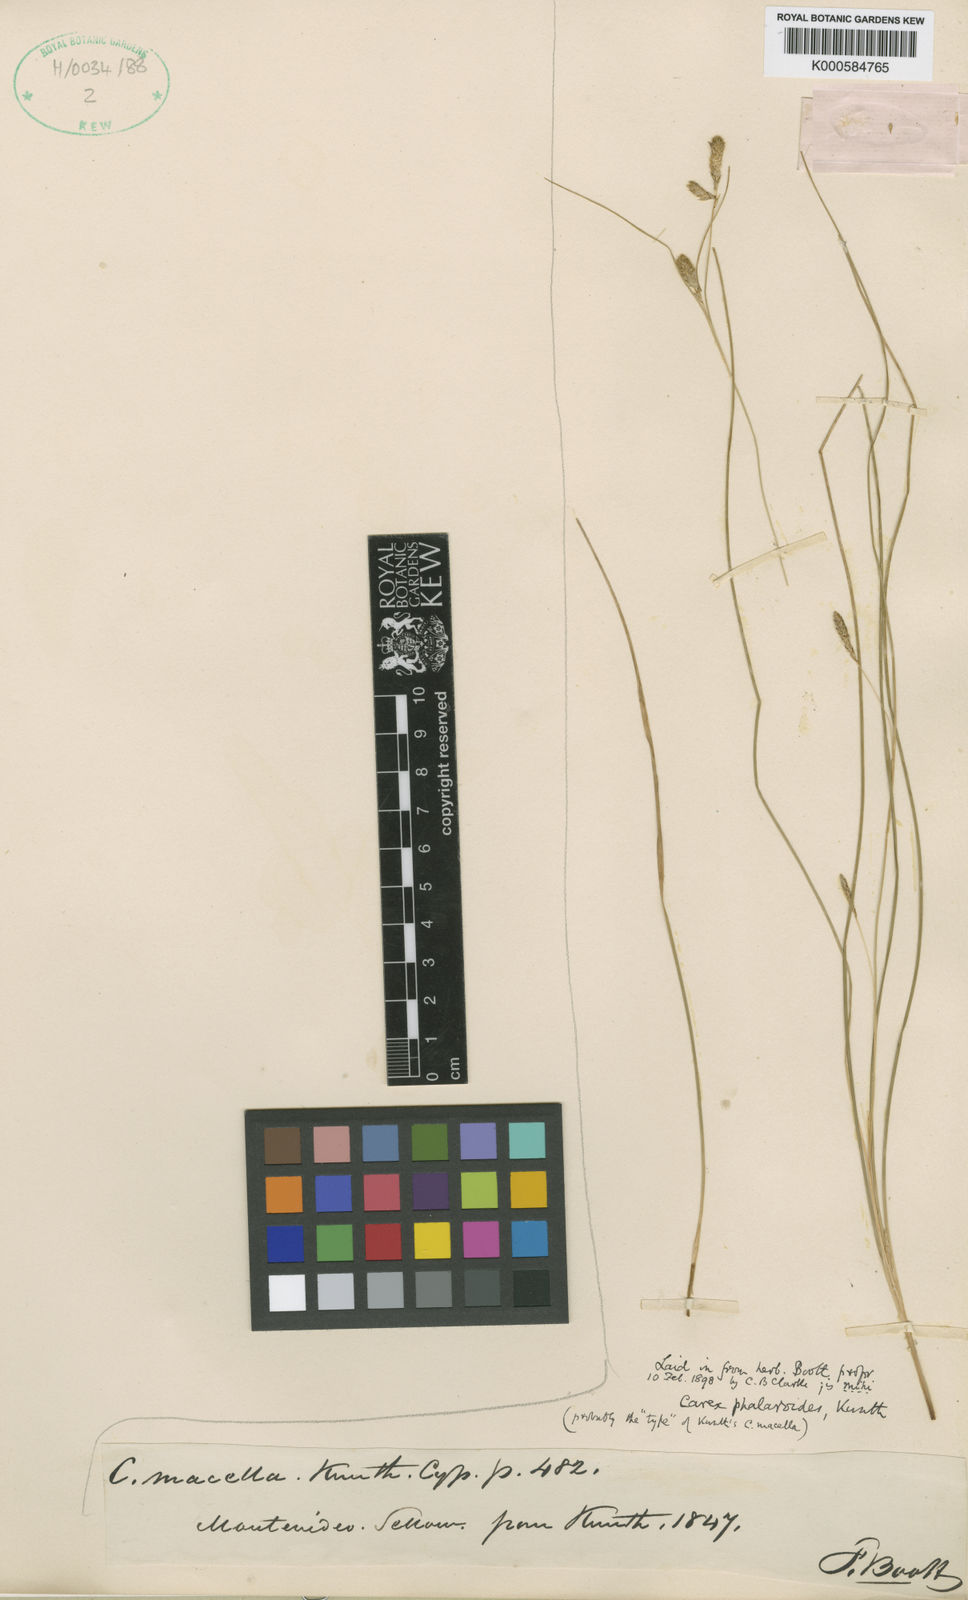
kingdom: Plantae
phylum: Tracheophyta
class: Liliopsida
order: Poales
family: Cyperaceae
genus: Carex
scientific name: Carex lamprocarpa
